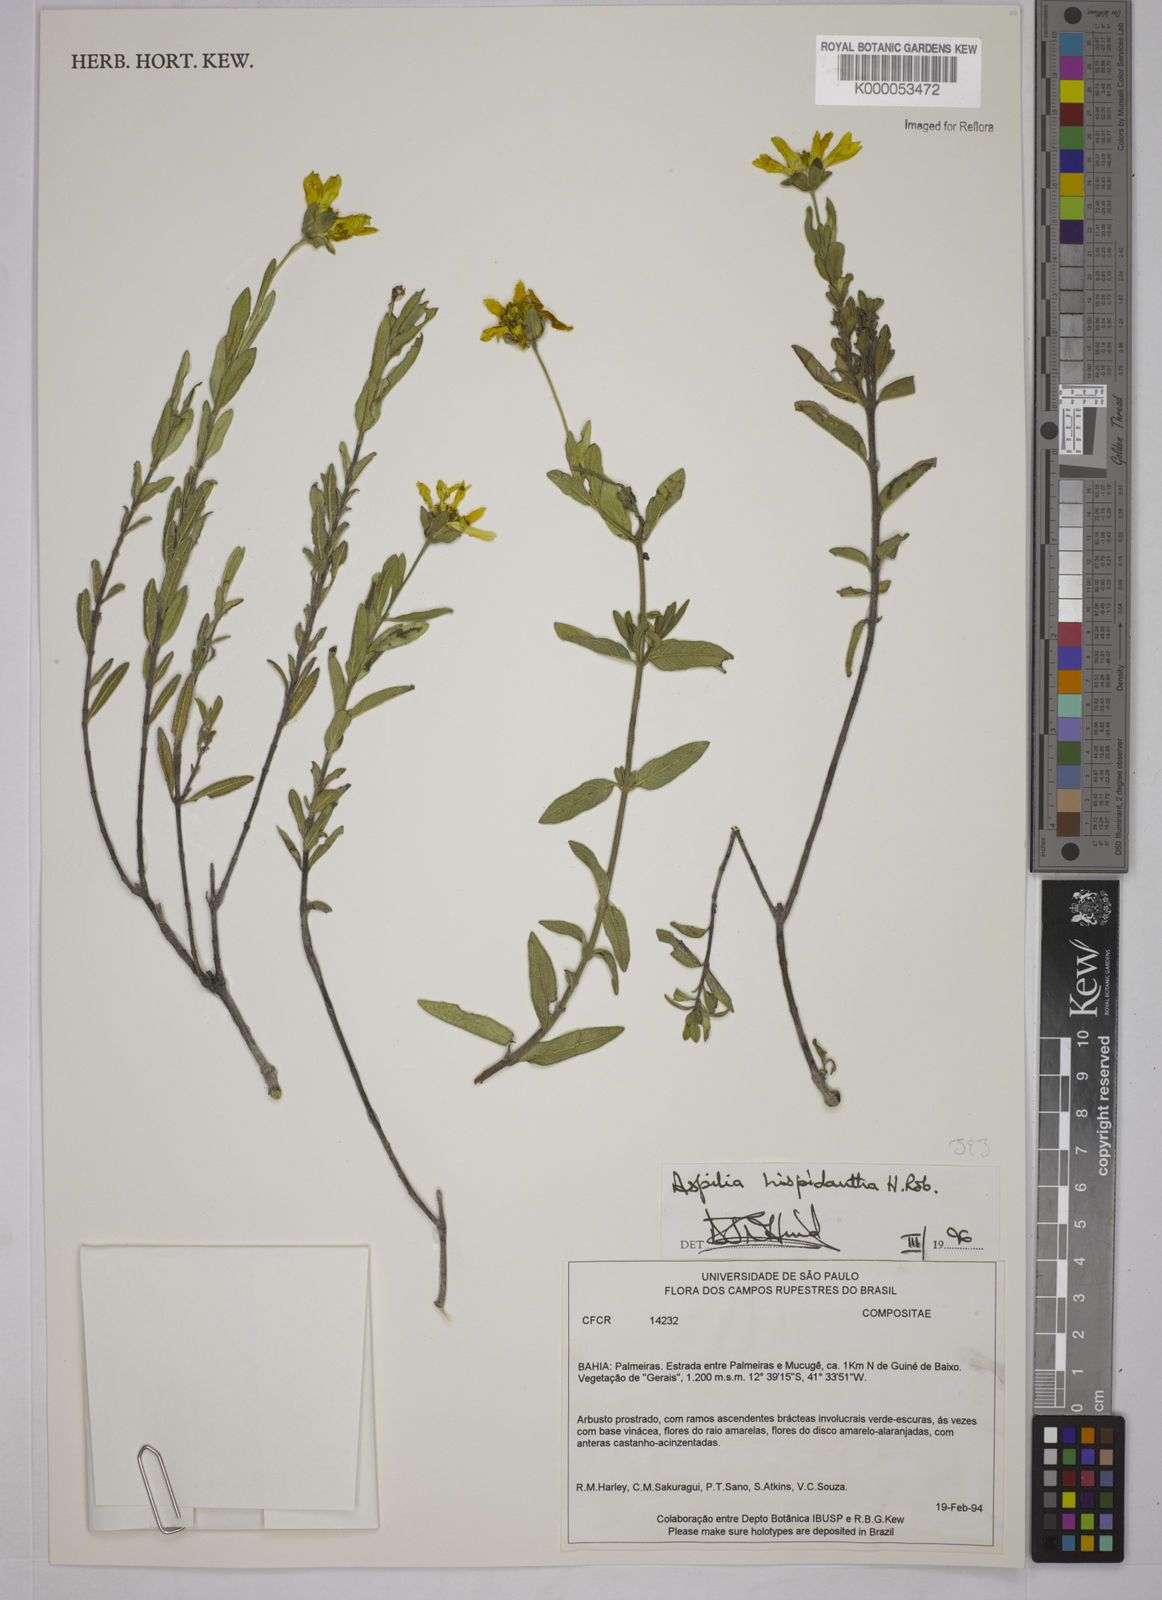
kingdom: Plantae
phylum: Tracheophyta
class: Magnoliopsida
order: Asterales
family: Asteraceae
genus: Wedelia
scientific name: Wedelia subalpestris
